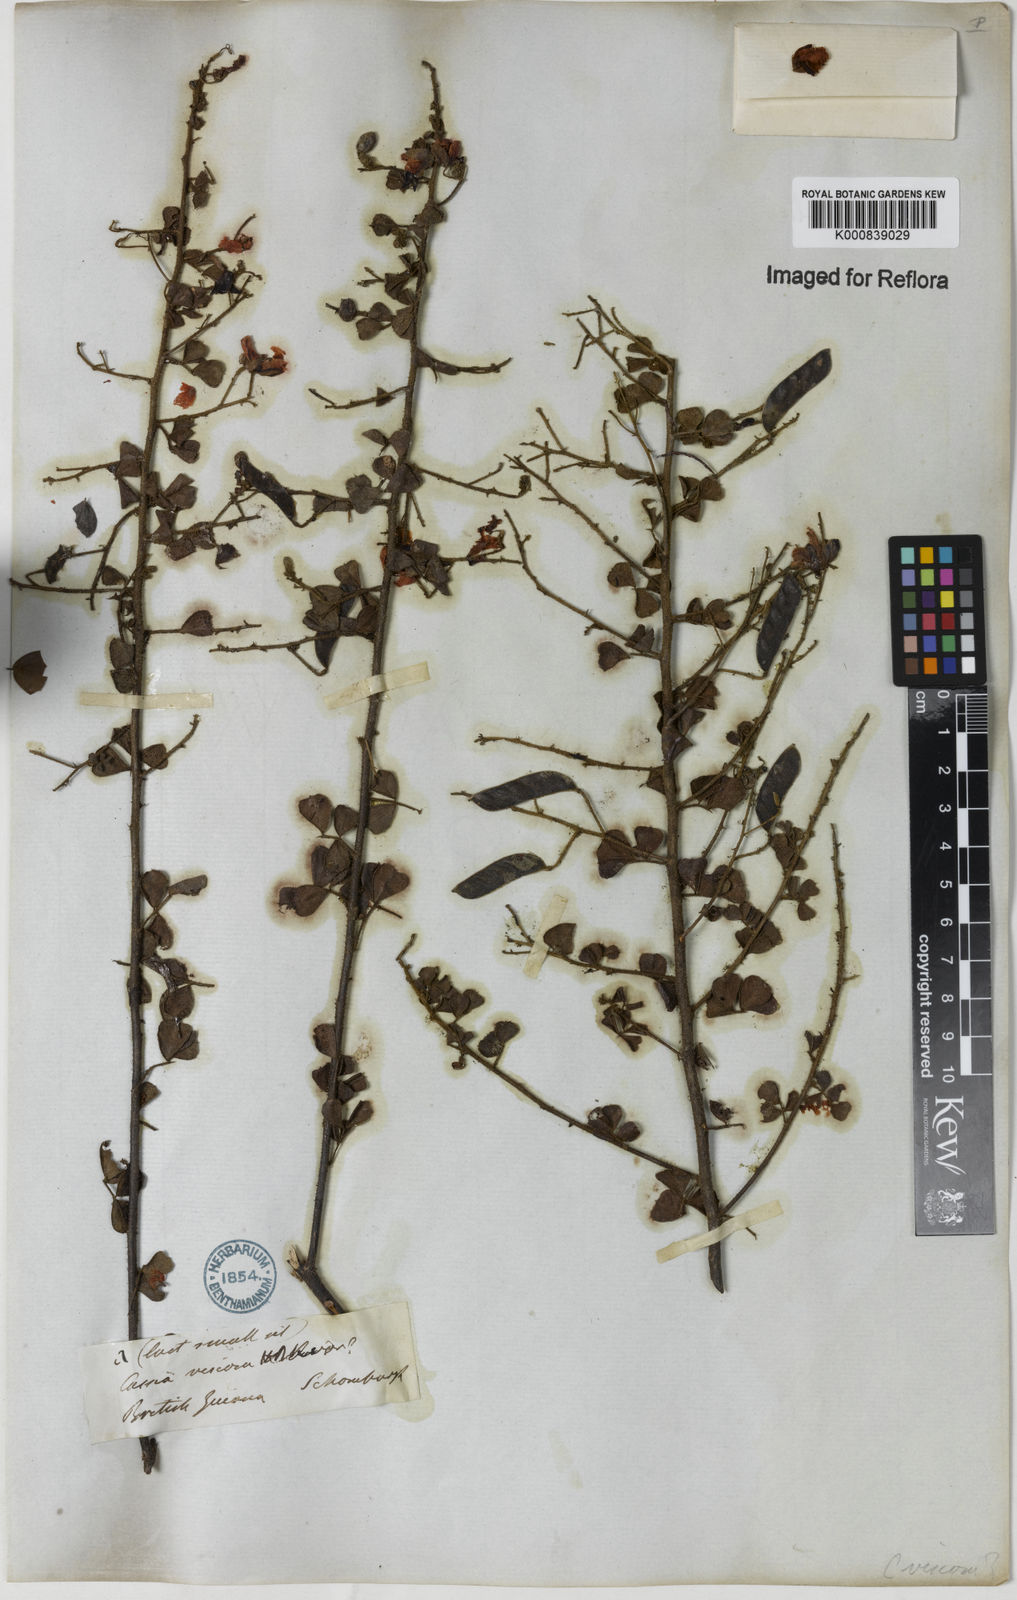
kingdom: Plantae
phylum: Tracheophyta
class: Magnoliopsida
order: Fabales
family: Fabaceae
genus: Chamaecrista
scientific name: Chamaecrista viscosa
